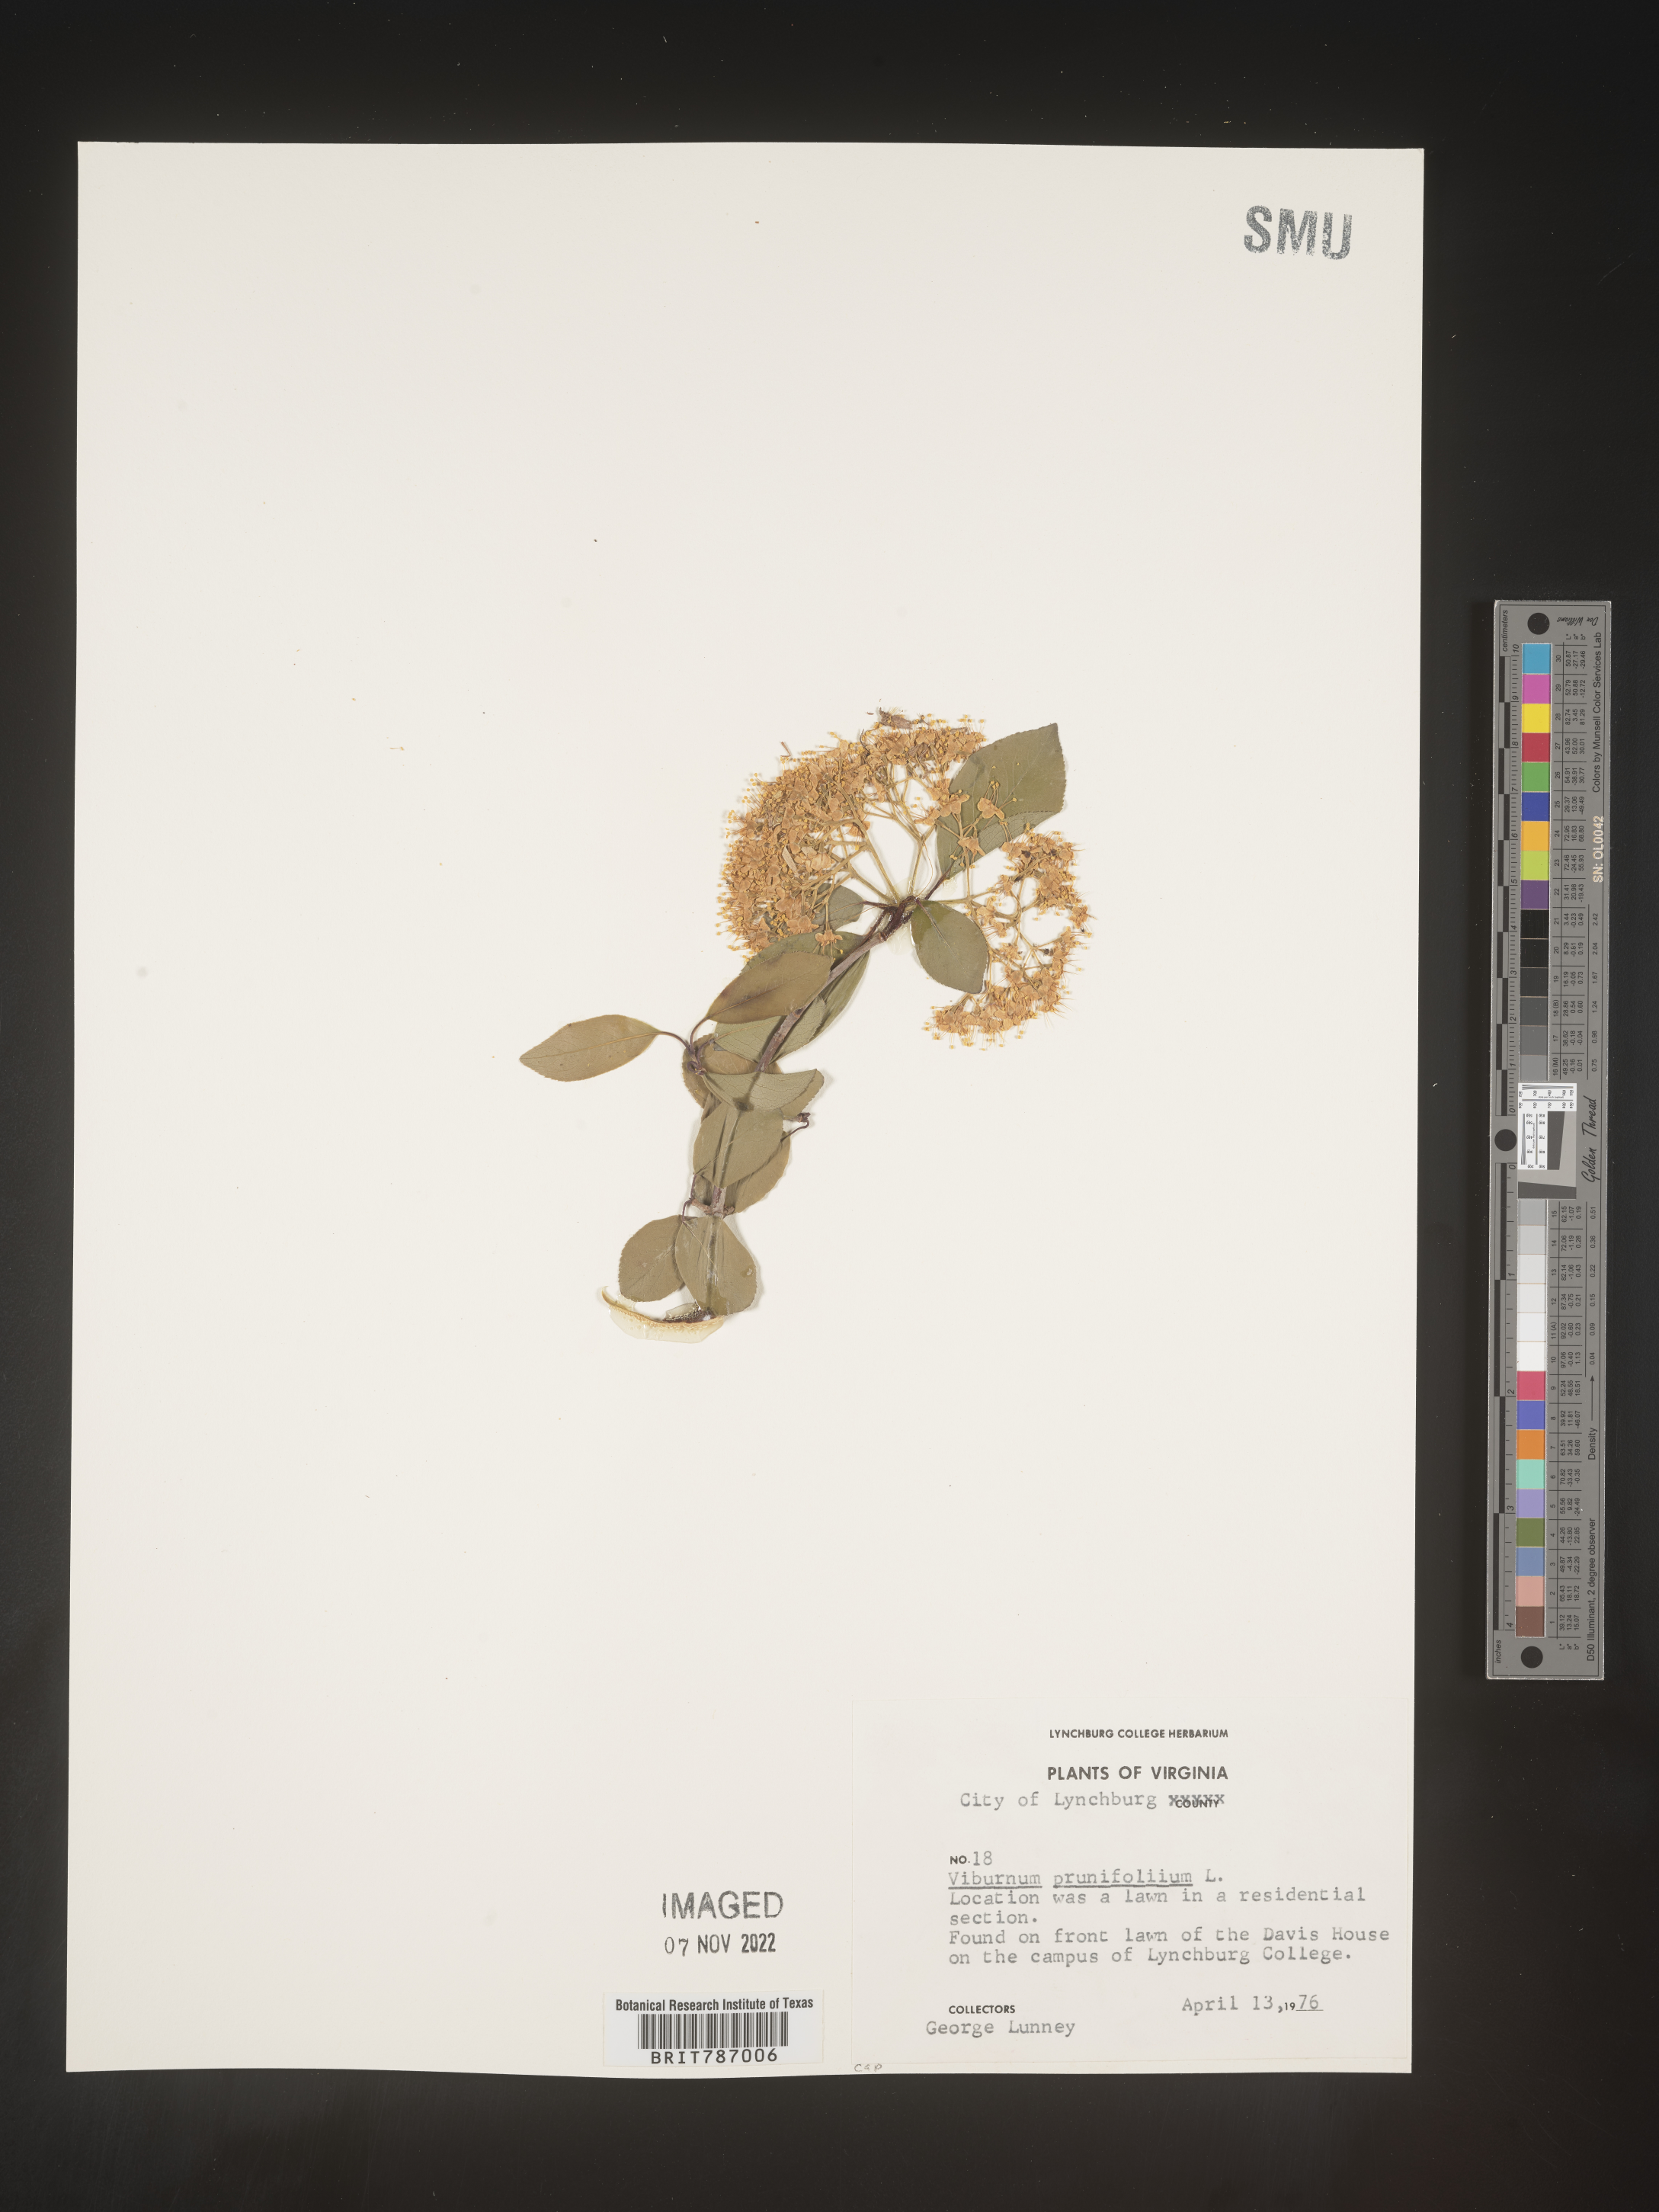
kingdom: Plantae
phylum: Tracheophyta
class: Magnoliopsida
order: Dipsacales
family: Viburnaceae
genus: Viburnum
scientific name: Viburnum prunifolium
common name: Black haw
